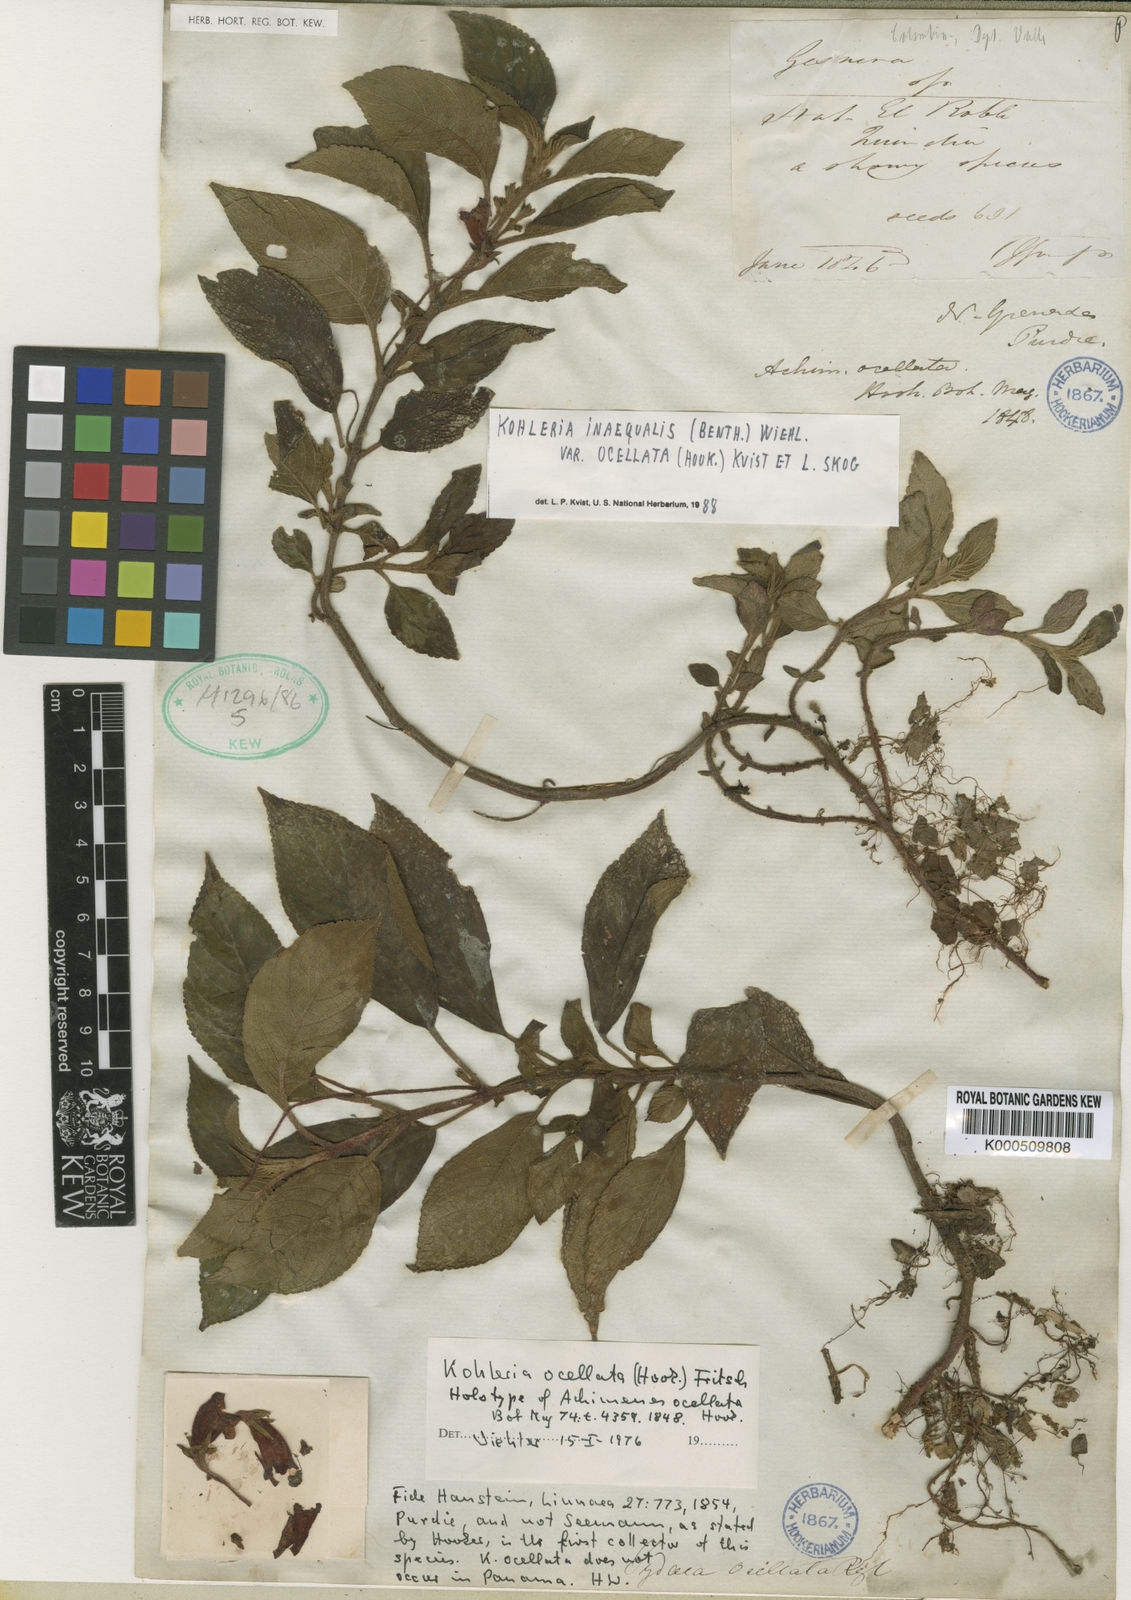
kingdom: Plantae
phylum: Tracheophyta
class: Magnoliopsida
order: Lamiales
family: Gesneriaceae
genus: Kohleria
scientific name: Kohleria inaequalis
